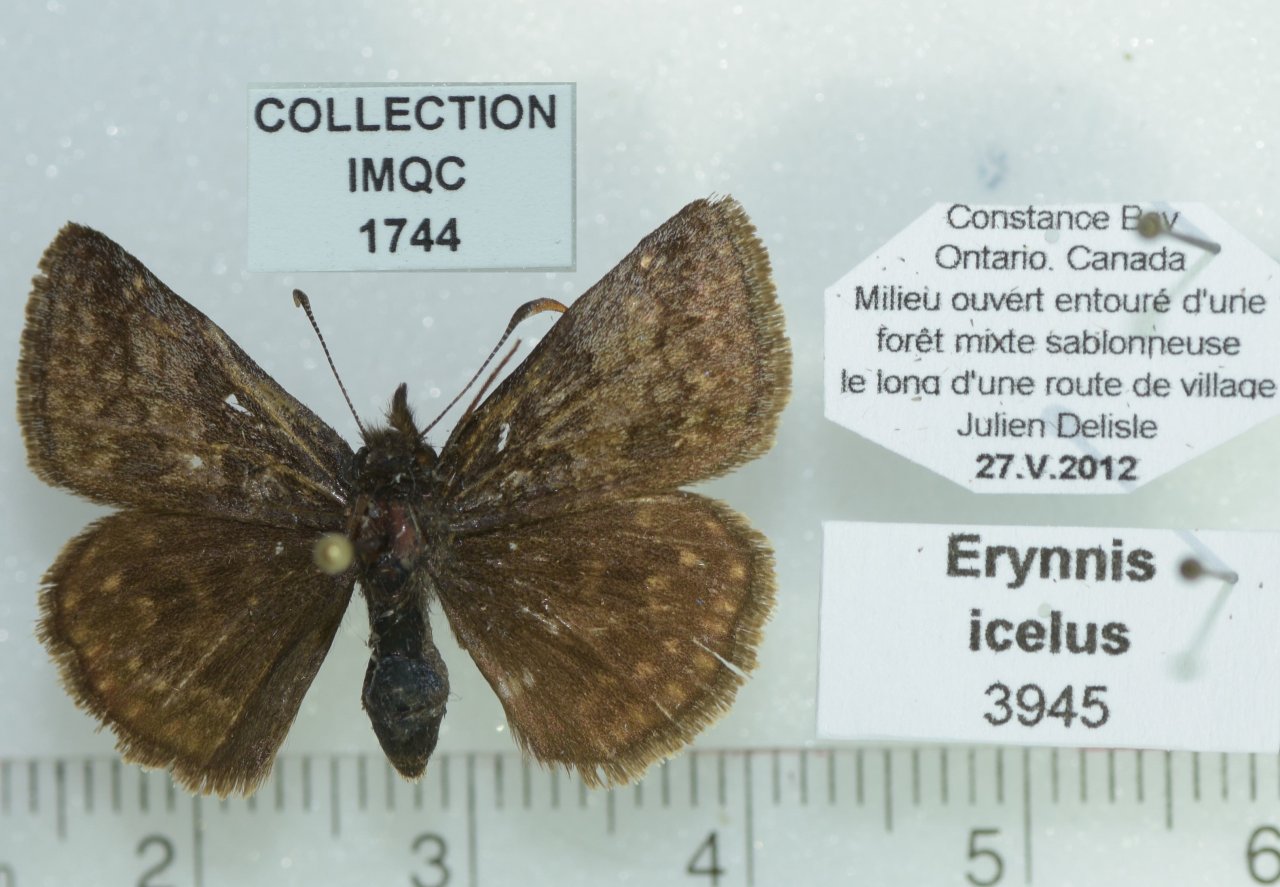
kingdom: Animalia
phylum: Arthropoda
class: Insecta
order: Lepidoptera
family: Hesperiidae
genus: Erynnis
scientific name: Erynnis icelus
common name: Dreamy Duskywing
